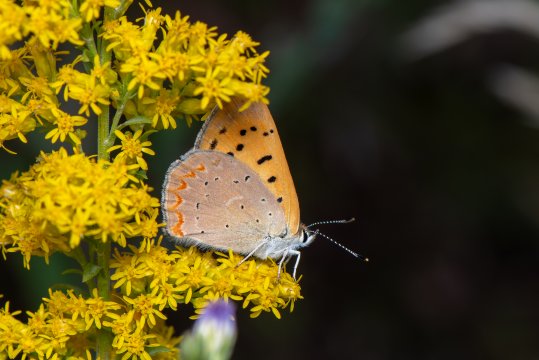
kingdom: Animalia
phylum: Arthropoda
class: Insecta
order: Lepidoptera
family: Sesiidae
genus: Sesia
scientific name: Sesia Lycaena helloides
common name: Purplish Copper
